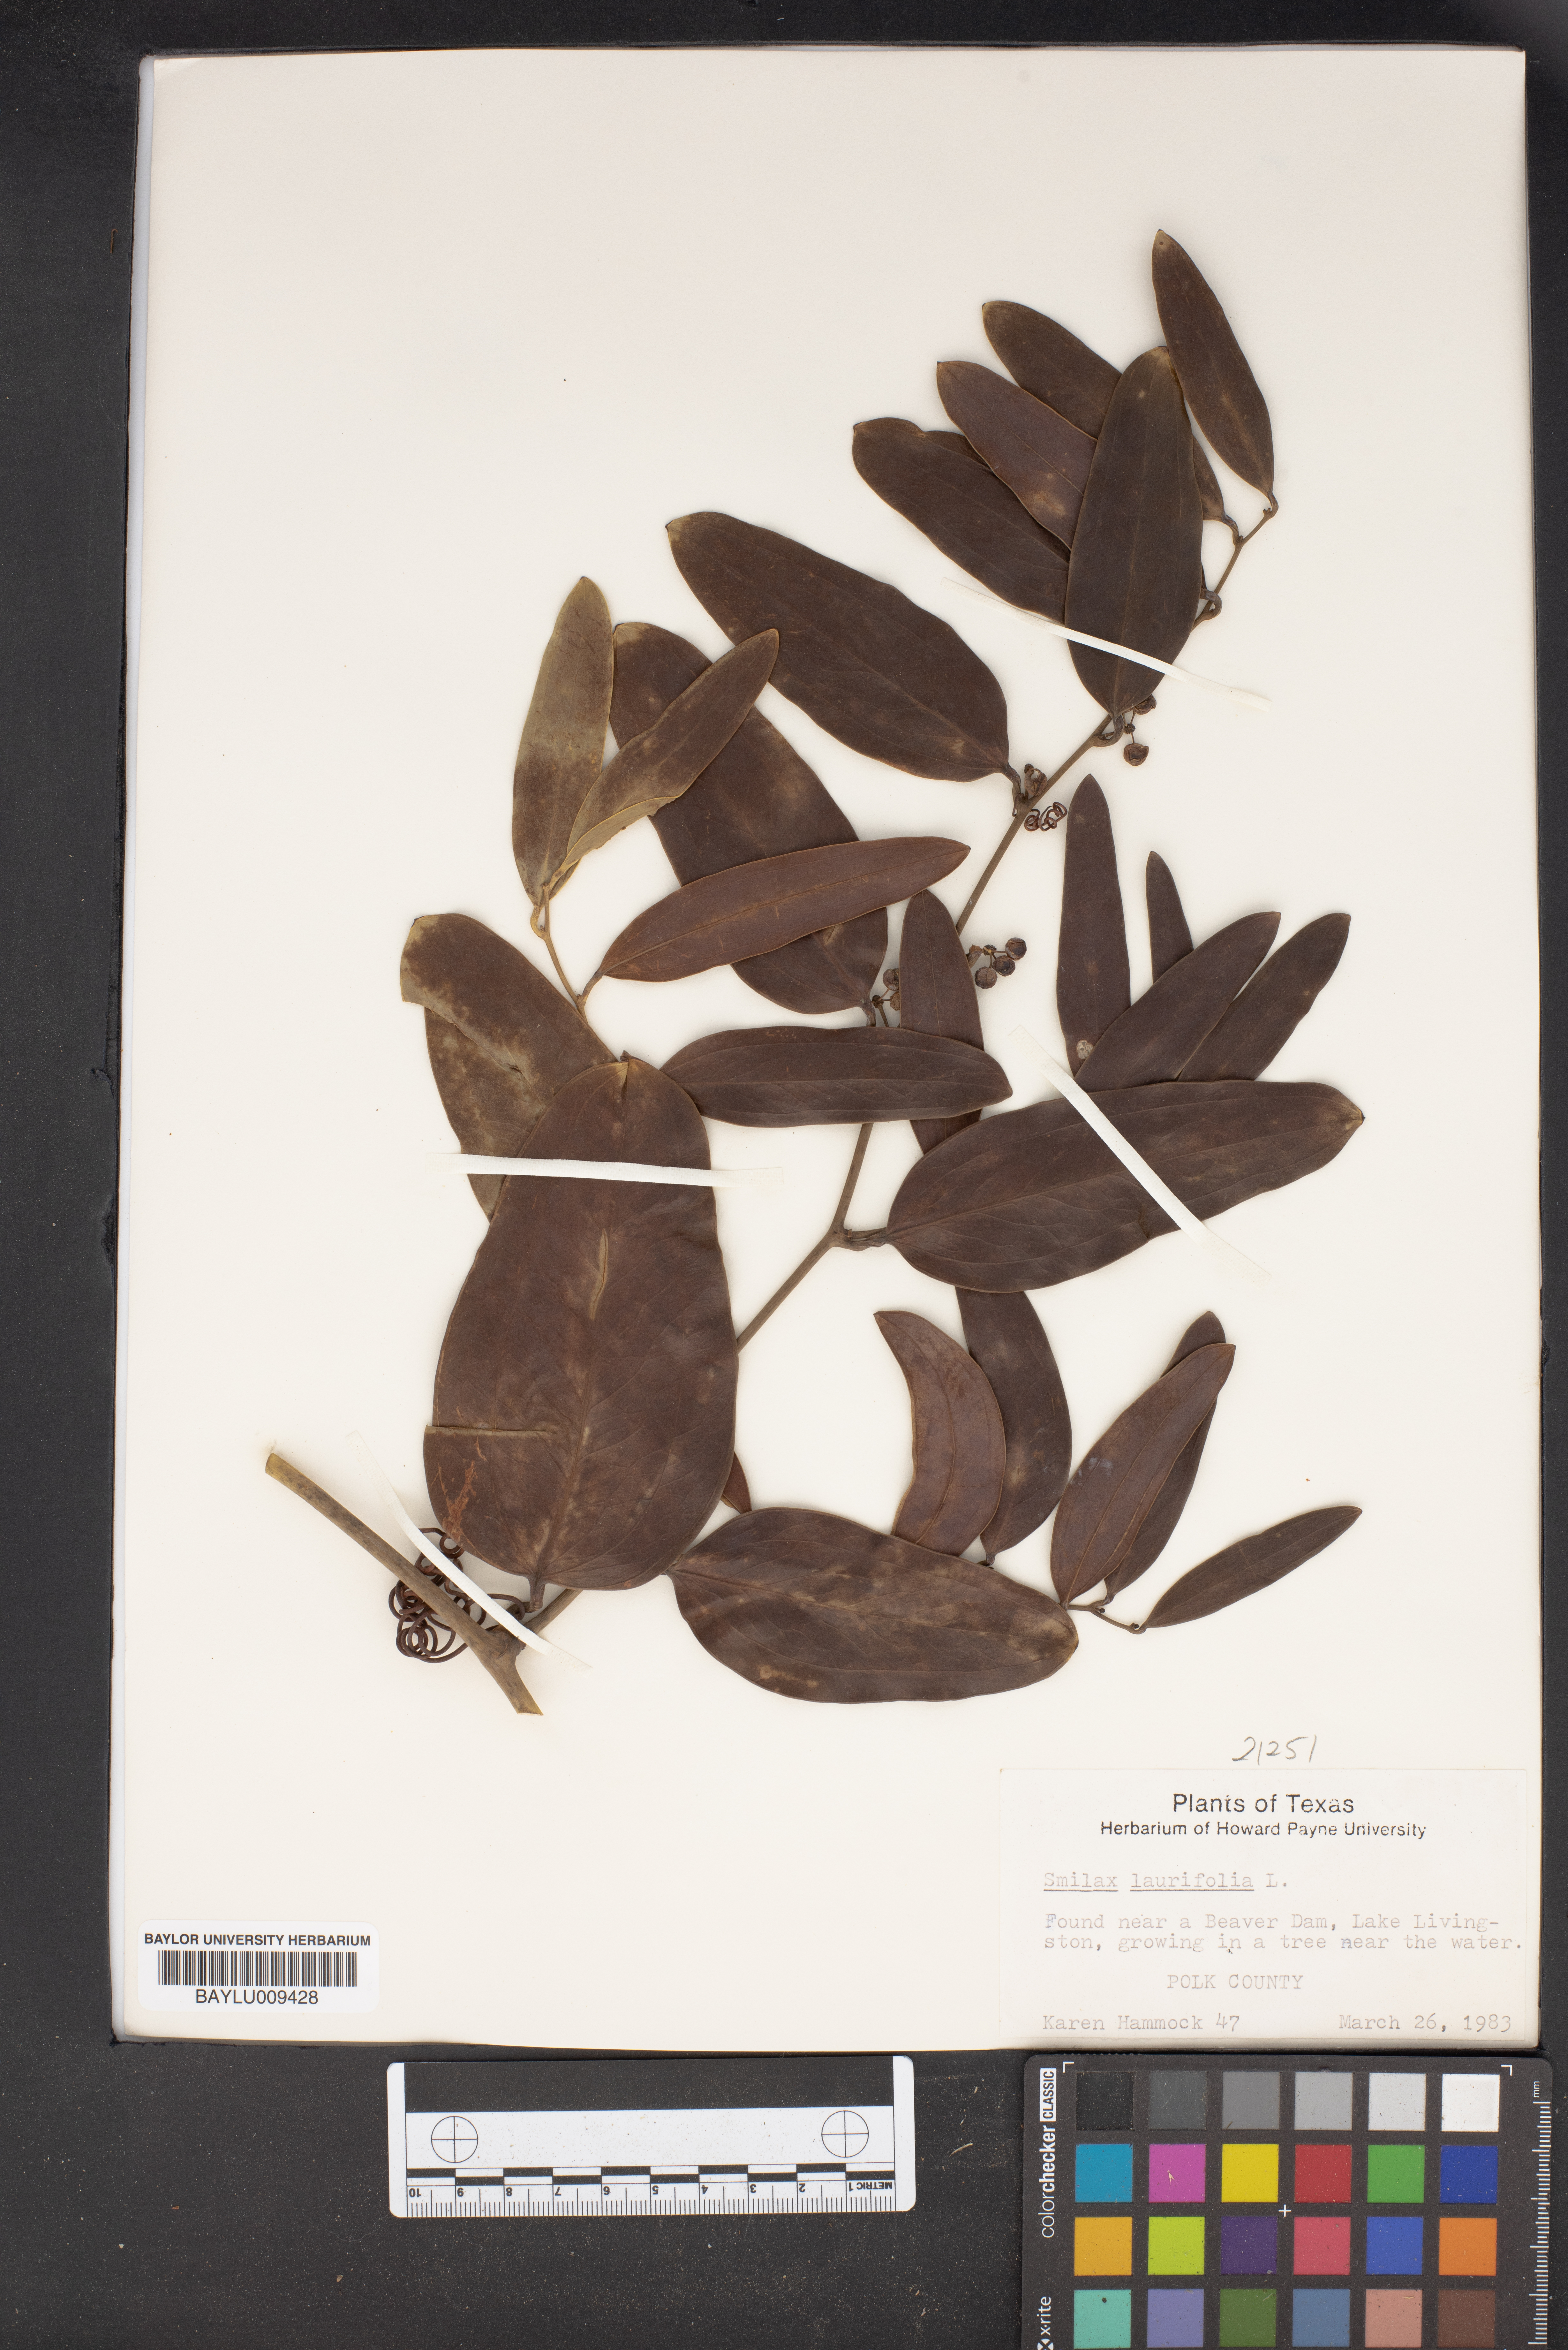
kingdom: Plantae
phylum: Tracheophyta
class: Liliopsida
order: Liliales
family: Smilacaceae
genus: Smilax
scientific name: Smilax laurifolia
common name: Bamboovine
